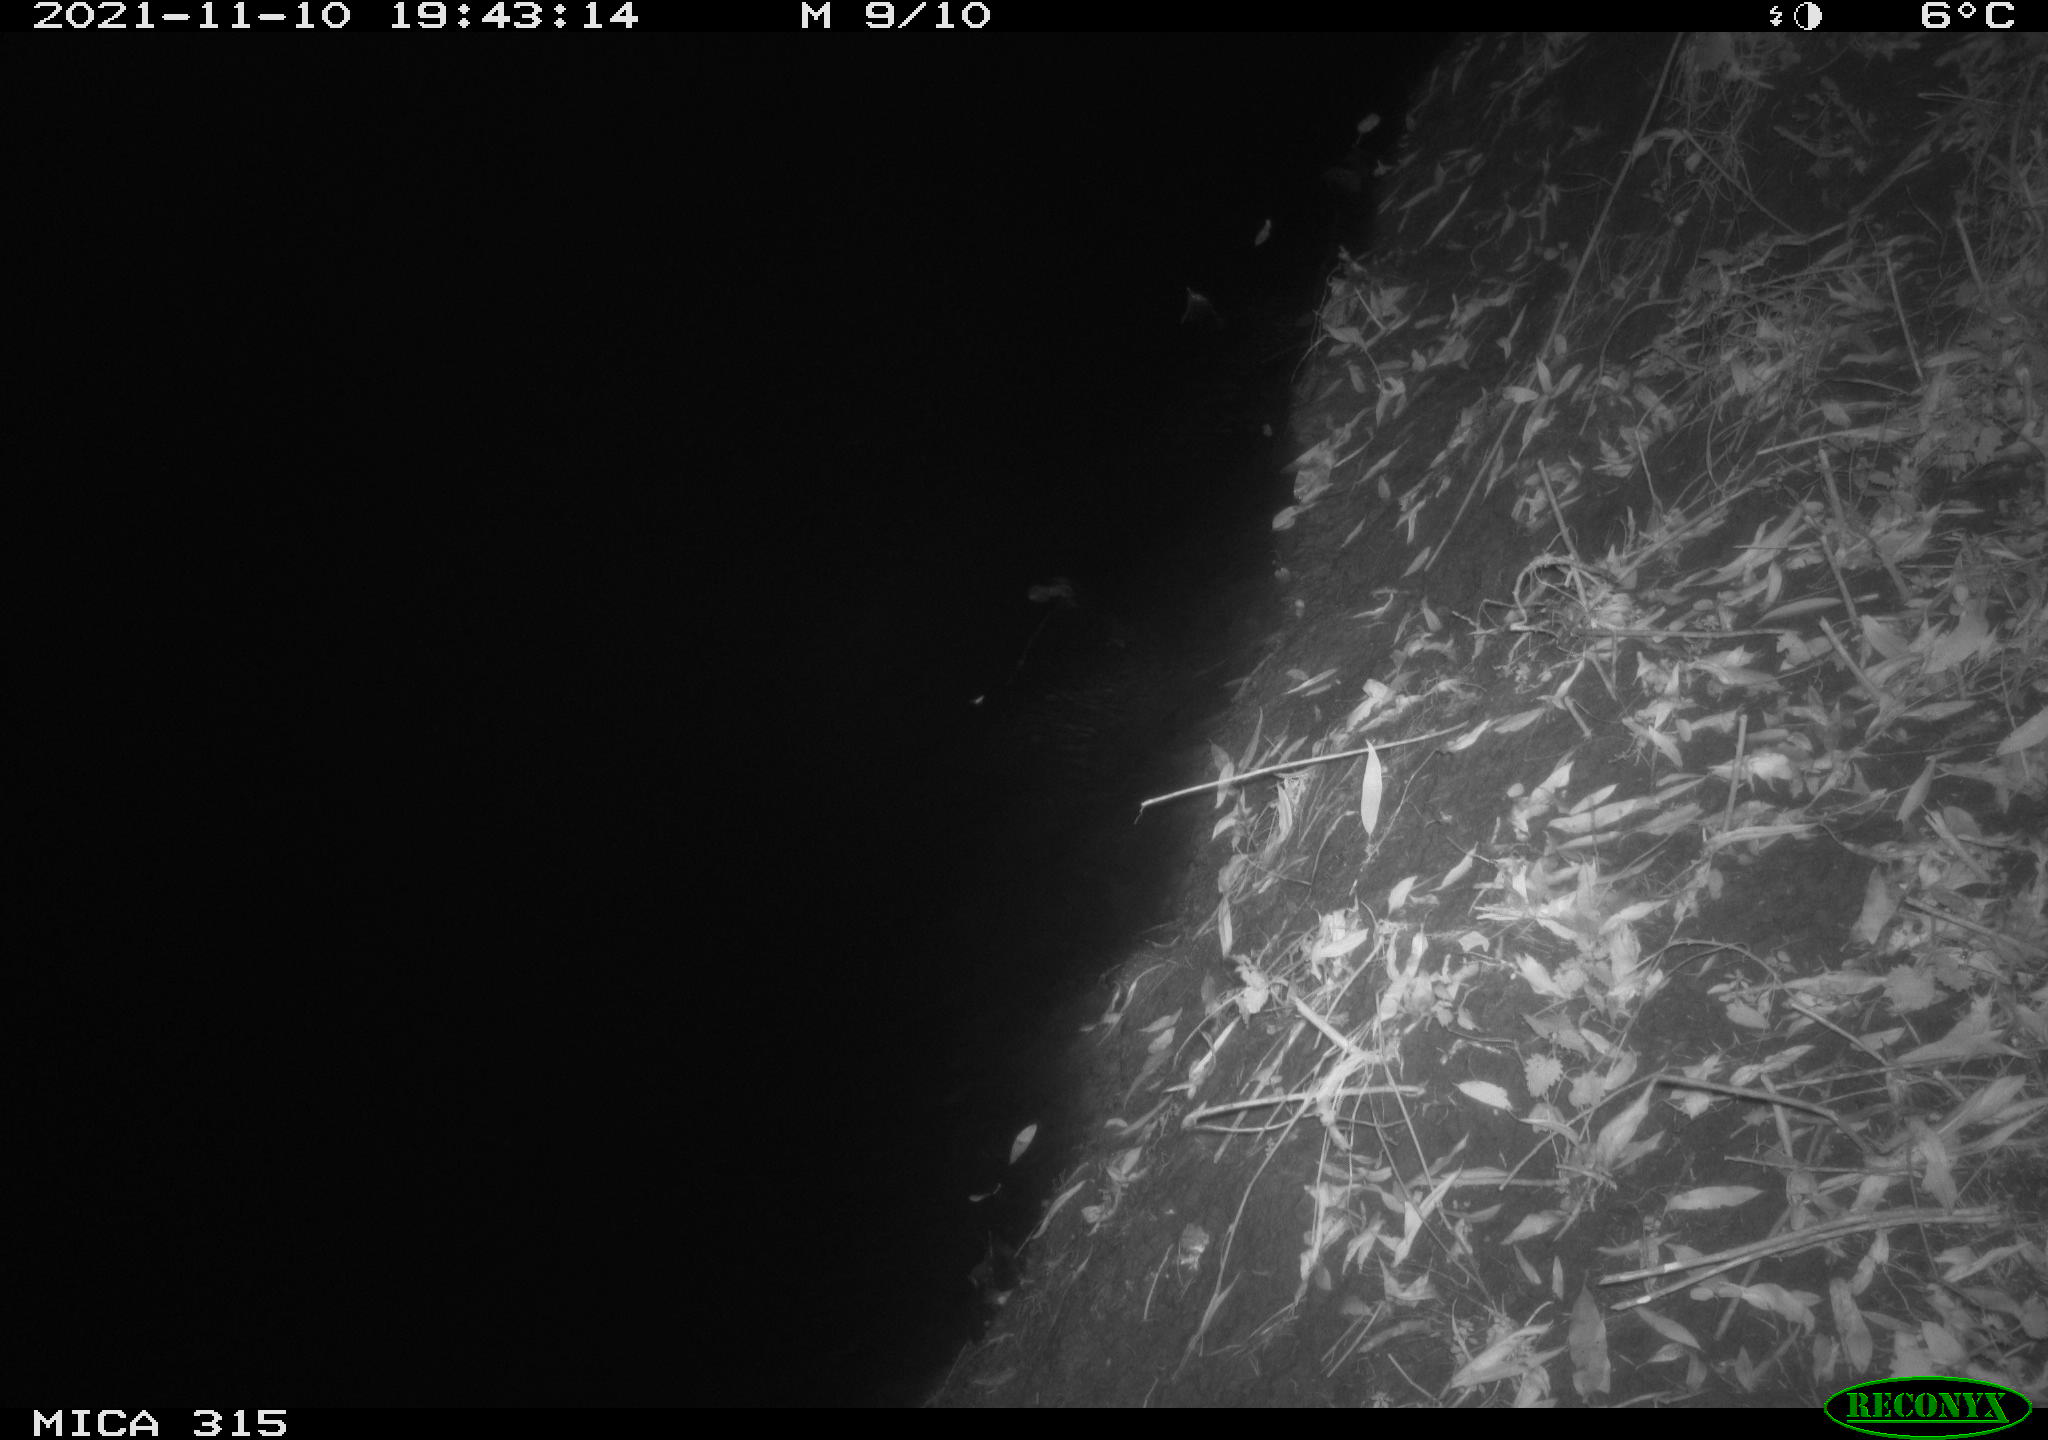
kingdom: Animalia
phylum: Chordata
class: Mammalia
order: Rodentia
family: Muridae
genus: Rattus
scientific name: Rattus norvegicus
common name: Brown rat
